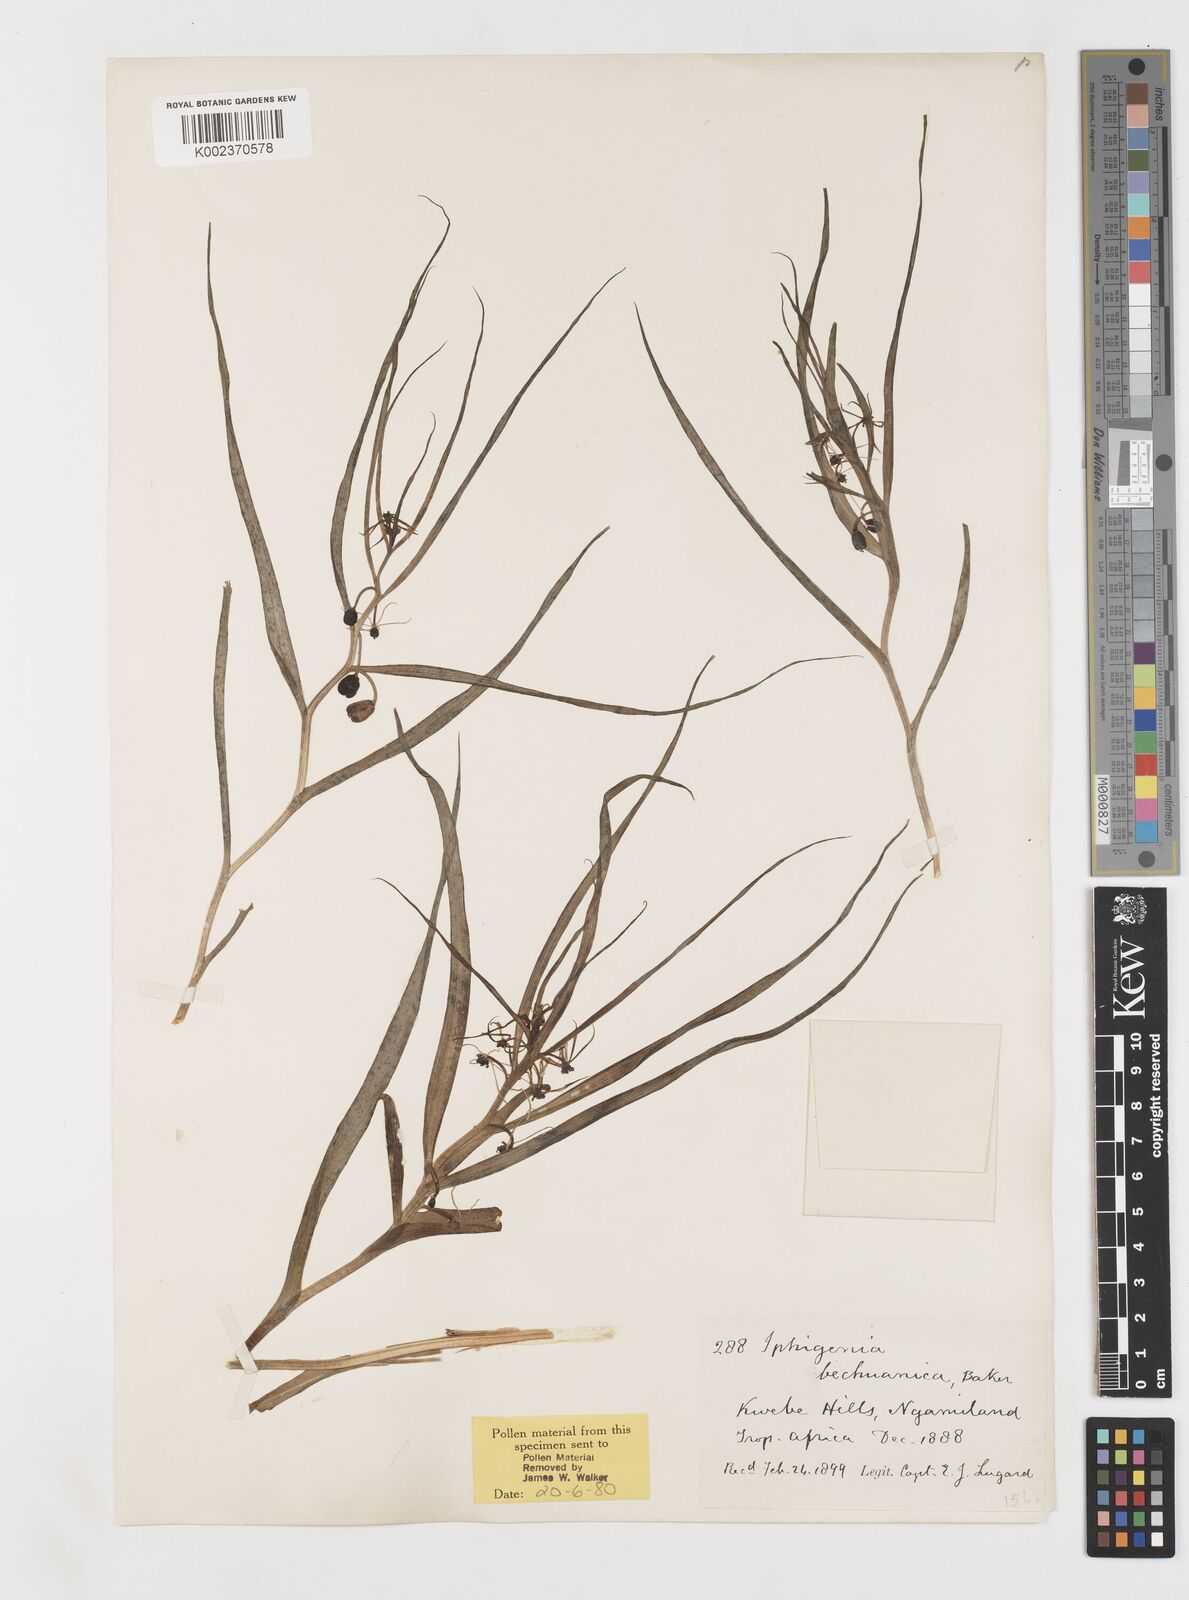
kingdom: Plantae
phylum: Tracheophyta
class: Liliopsida
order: Liliales
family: Colchicaceae
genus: Iphigenia
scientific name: Iphigenia oliveri
